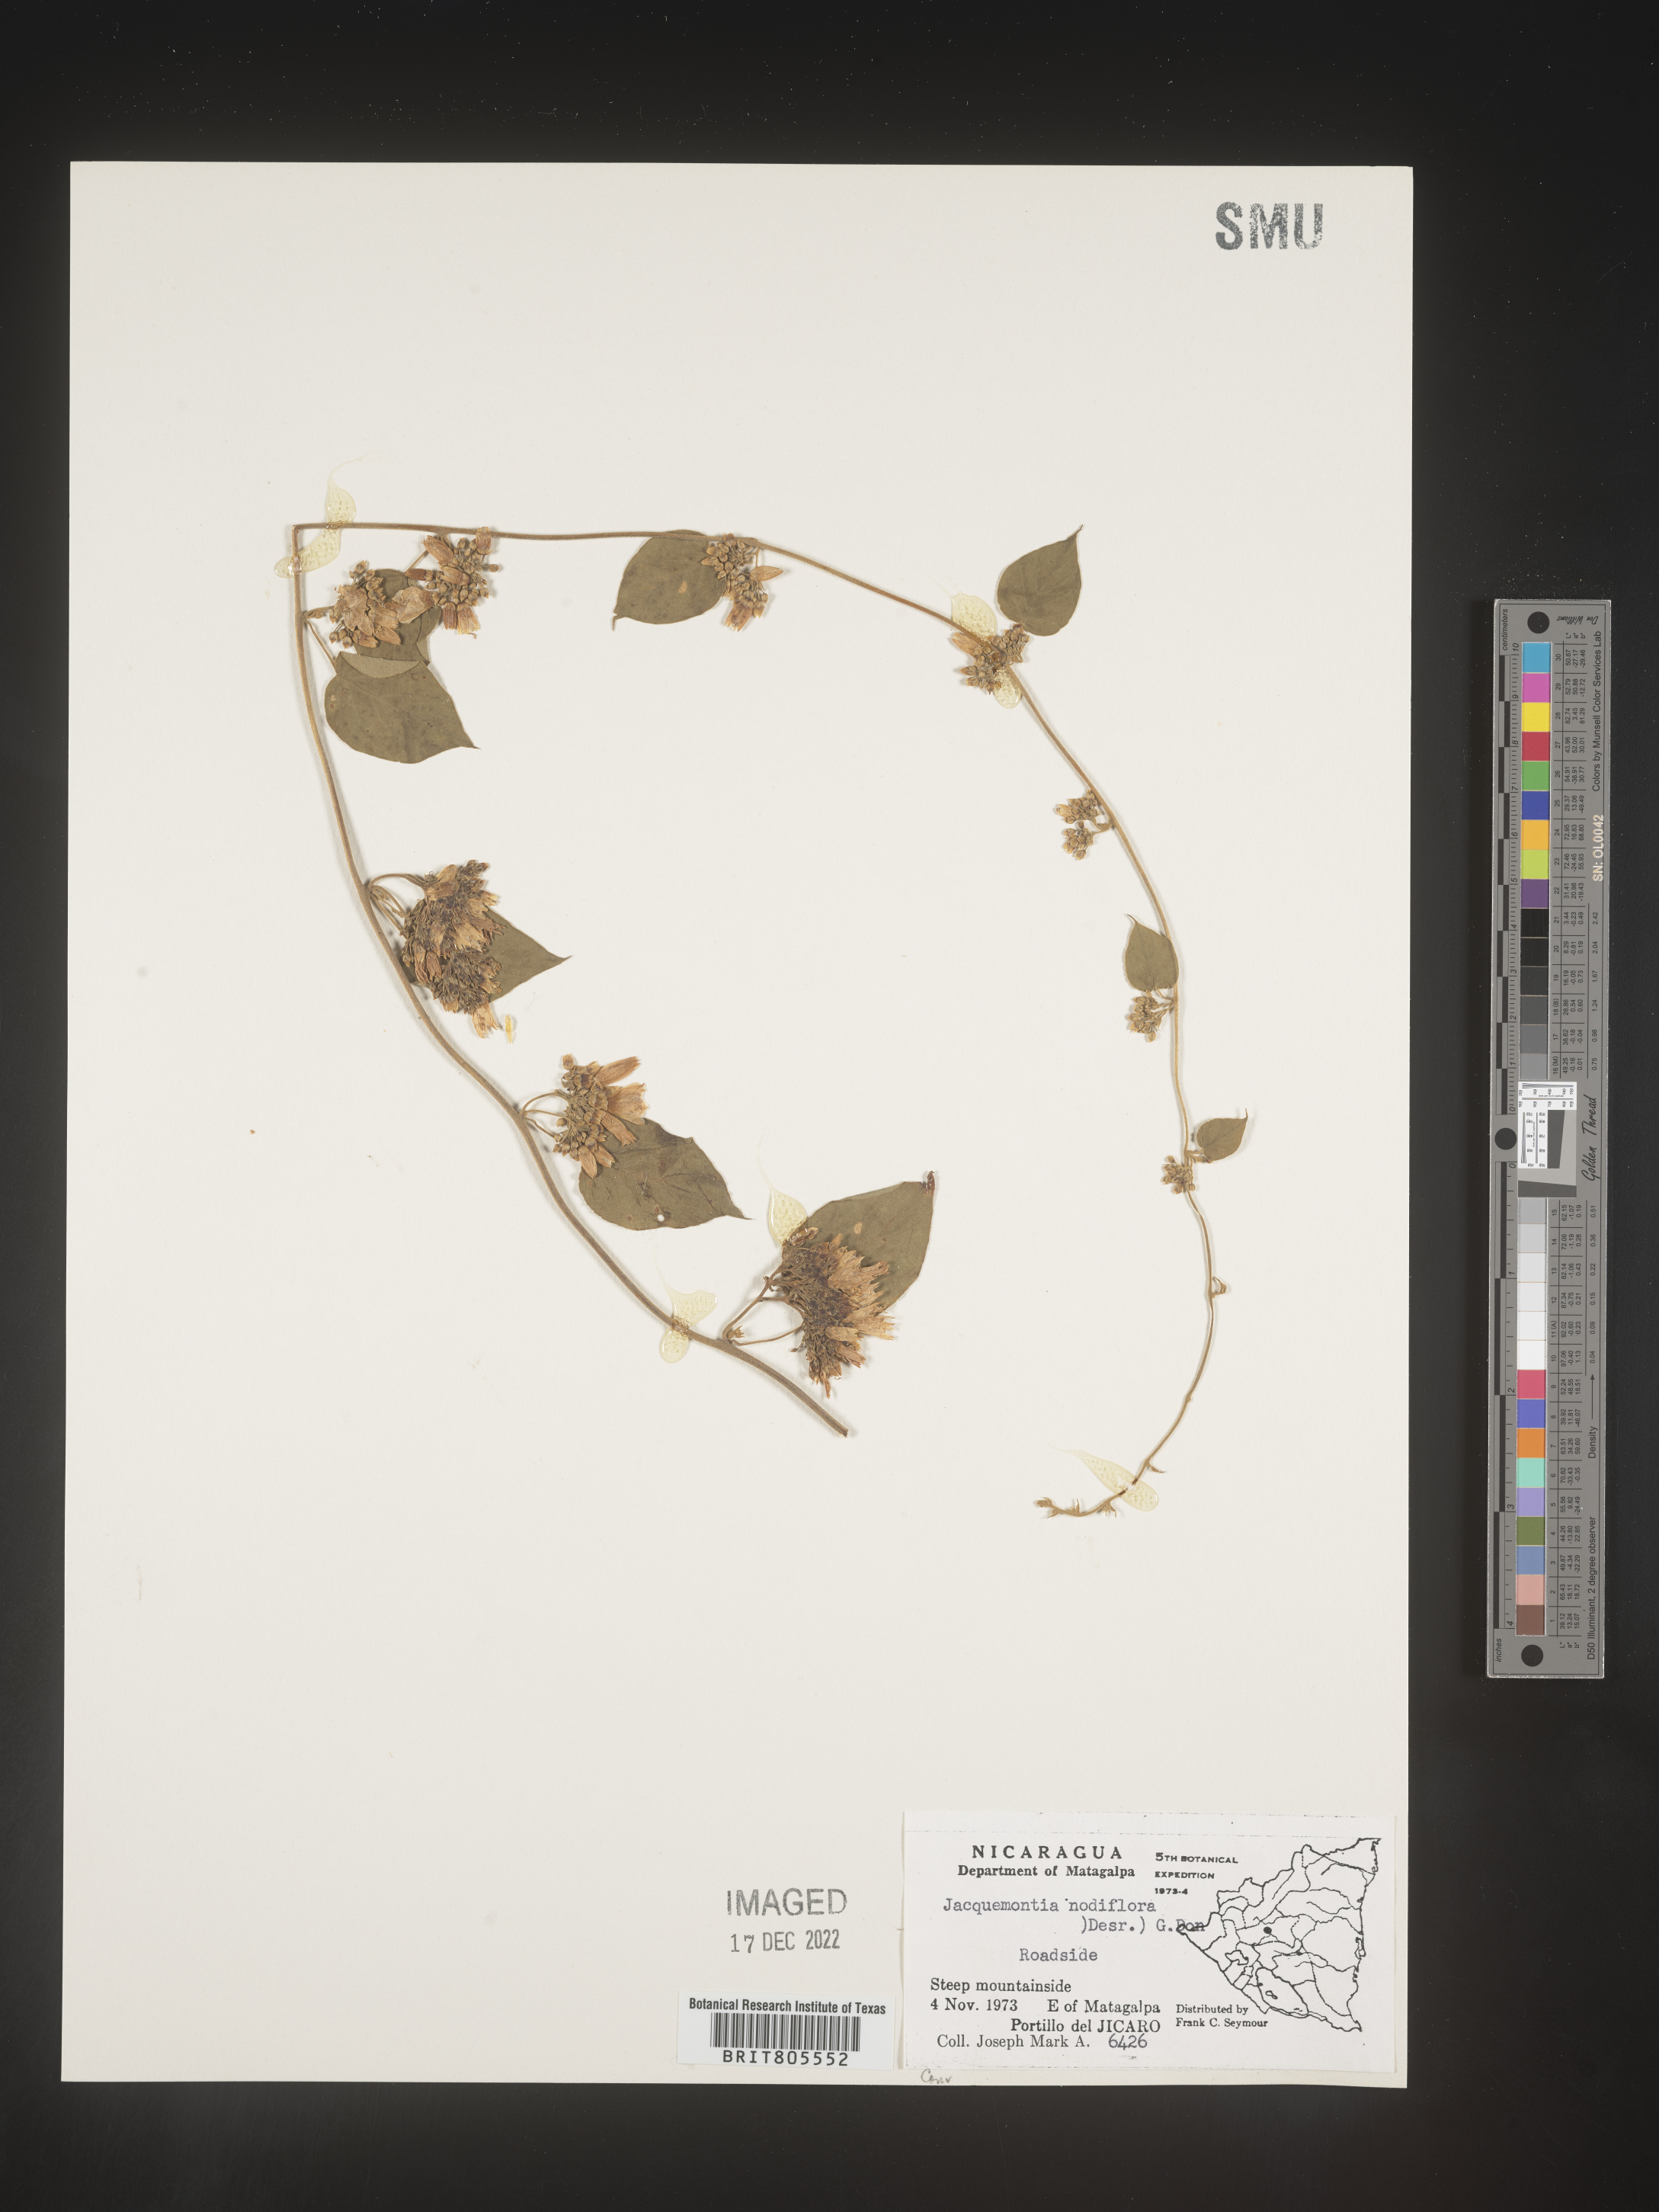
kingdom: Plantae
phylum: Tracheophyta
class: Magnoliopsida
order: Solanales
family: Convolvulaceae
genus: Jacquemontia
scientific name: Jacquemontia
